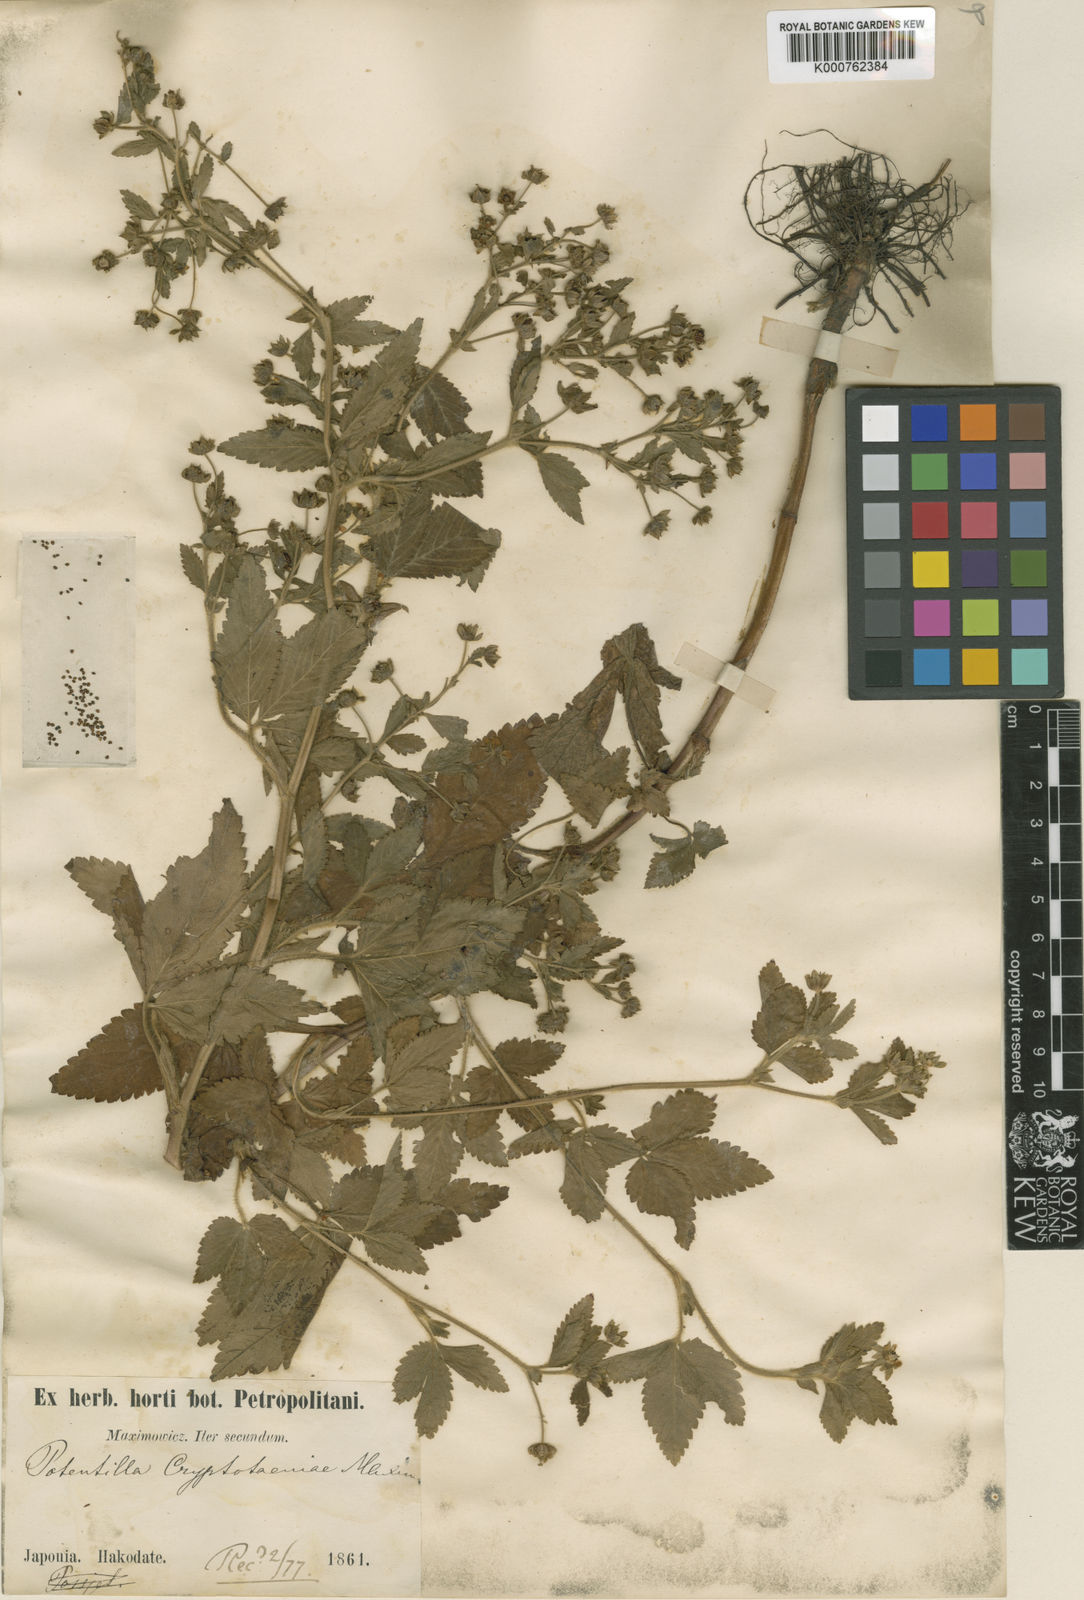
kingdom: Plantae
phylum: Tracheophyta
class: Magnoliopsida
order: Rosales
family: Rosaceae
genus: Potentilla
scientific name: Potentilla cryptotaeniae
